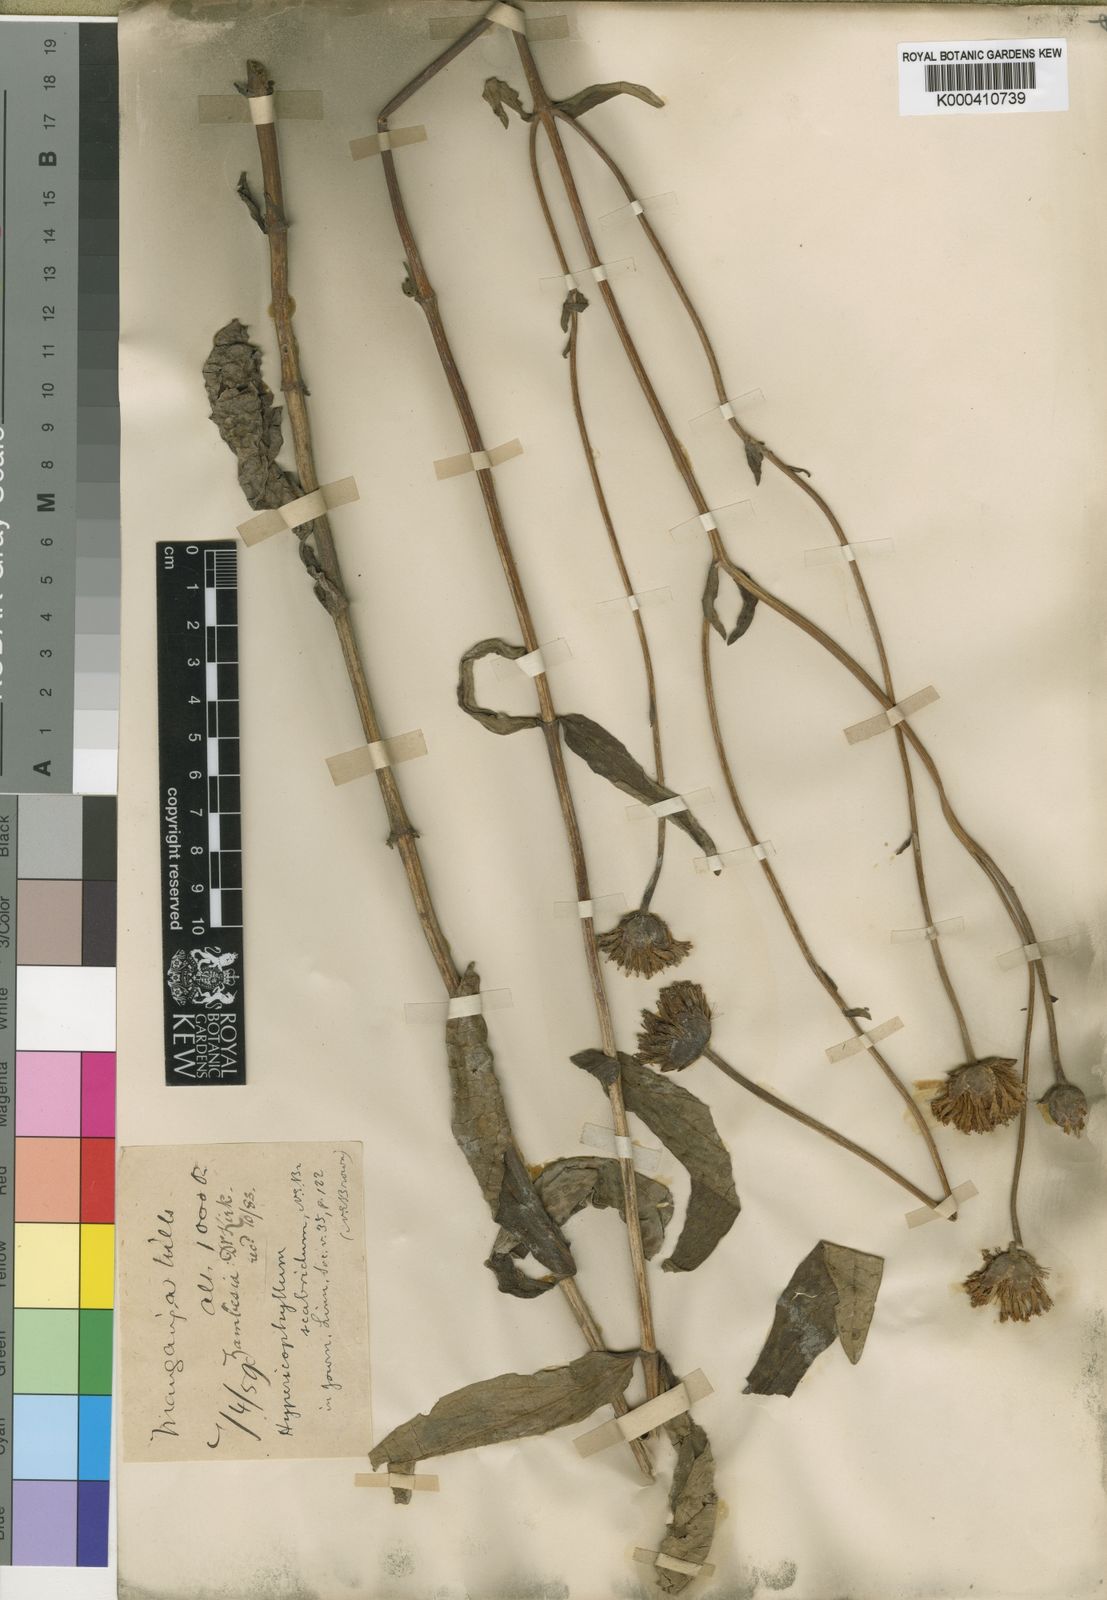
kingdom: Plantae
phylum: Tracheophyta
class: Magnoliopsida
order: Asterales
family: Asteraceae
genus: Hypericophyllum
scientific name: Hypericophyllum angolense
